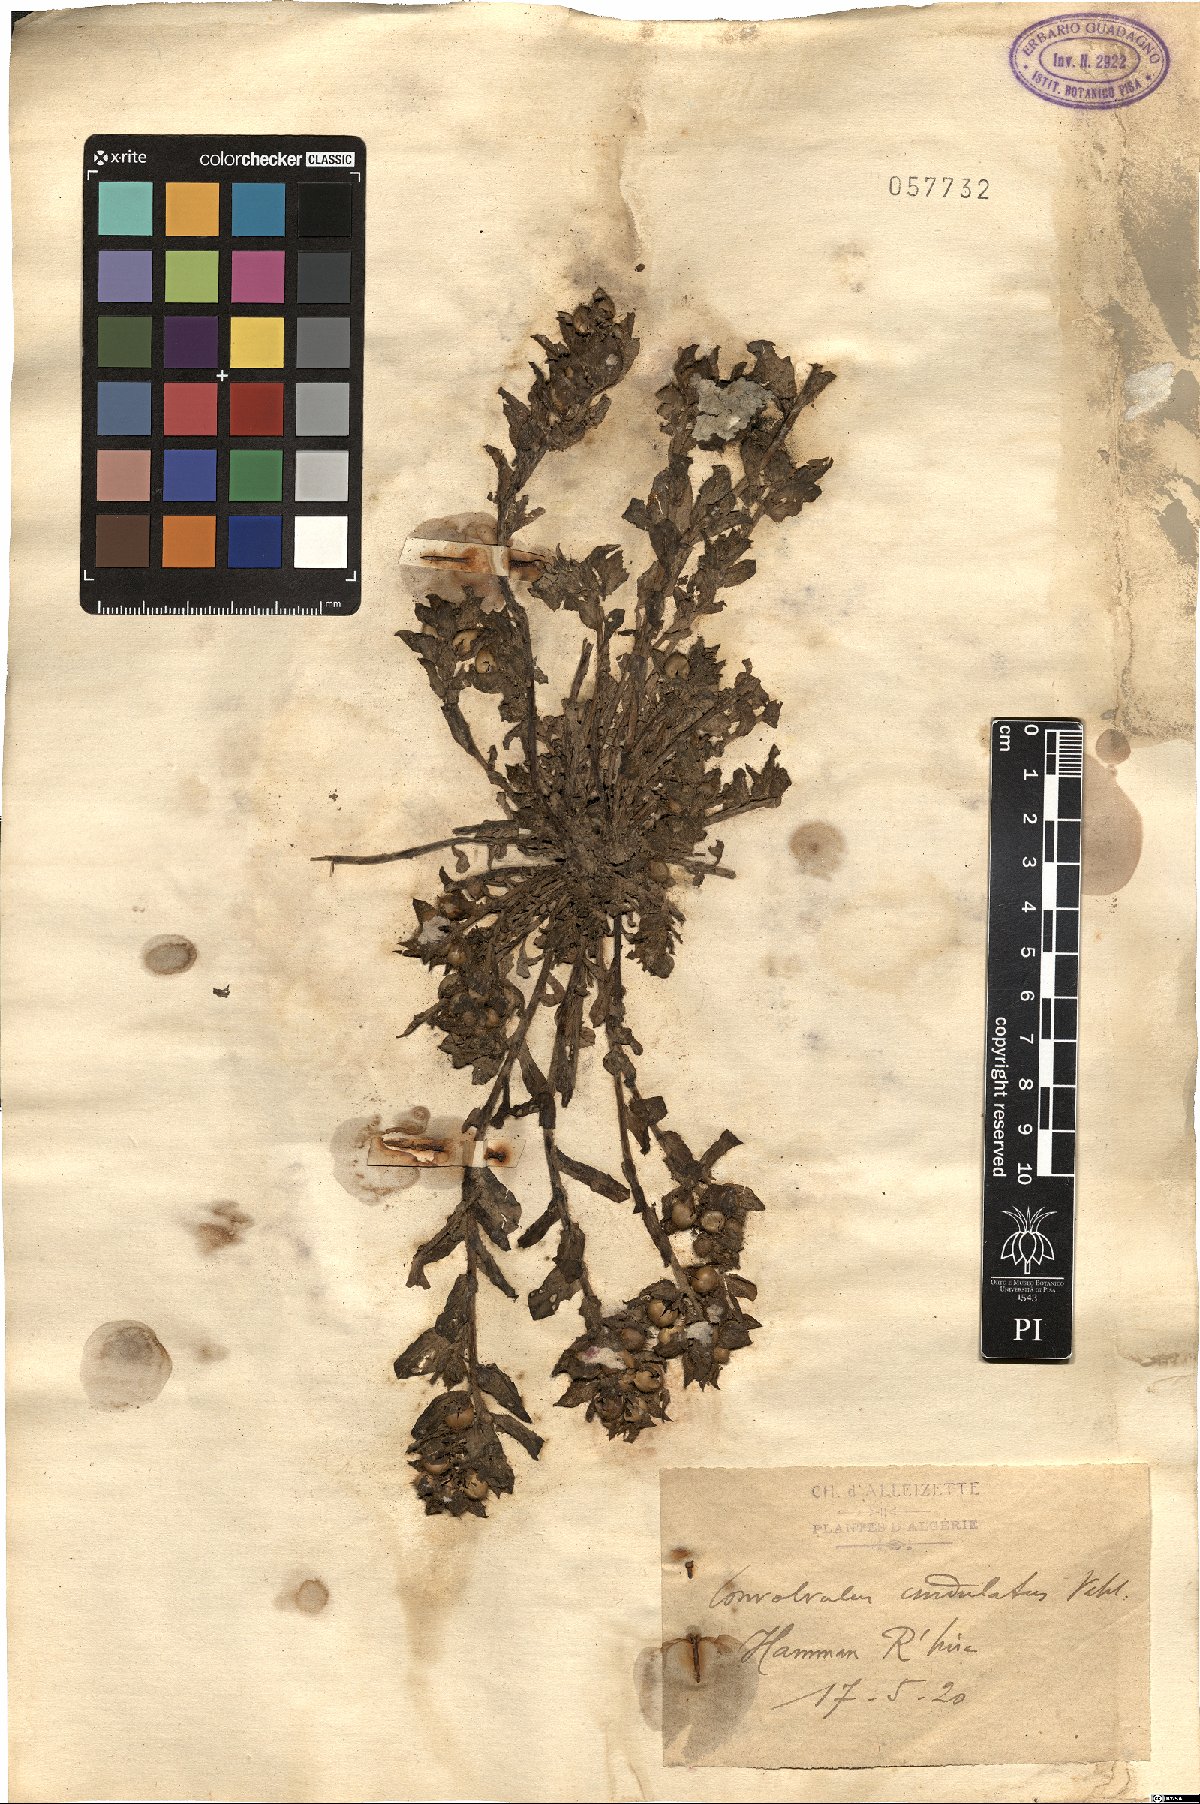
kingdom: Plantae
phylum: Tracheophyta
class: Magnoliopsida
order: Solanales
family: Convolvulaceae
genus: Convolvulus
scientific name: Convolvulus humilis
